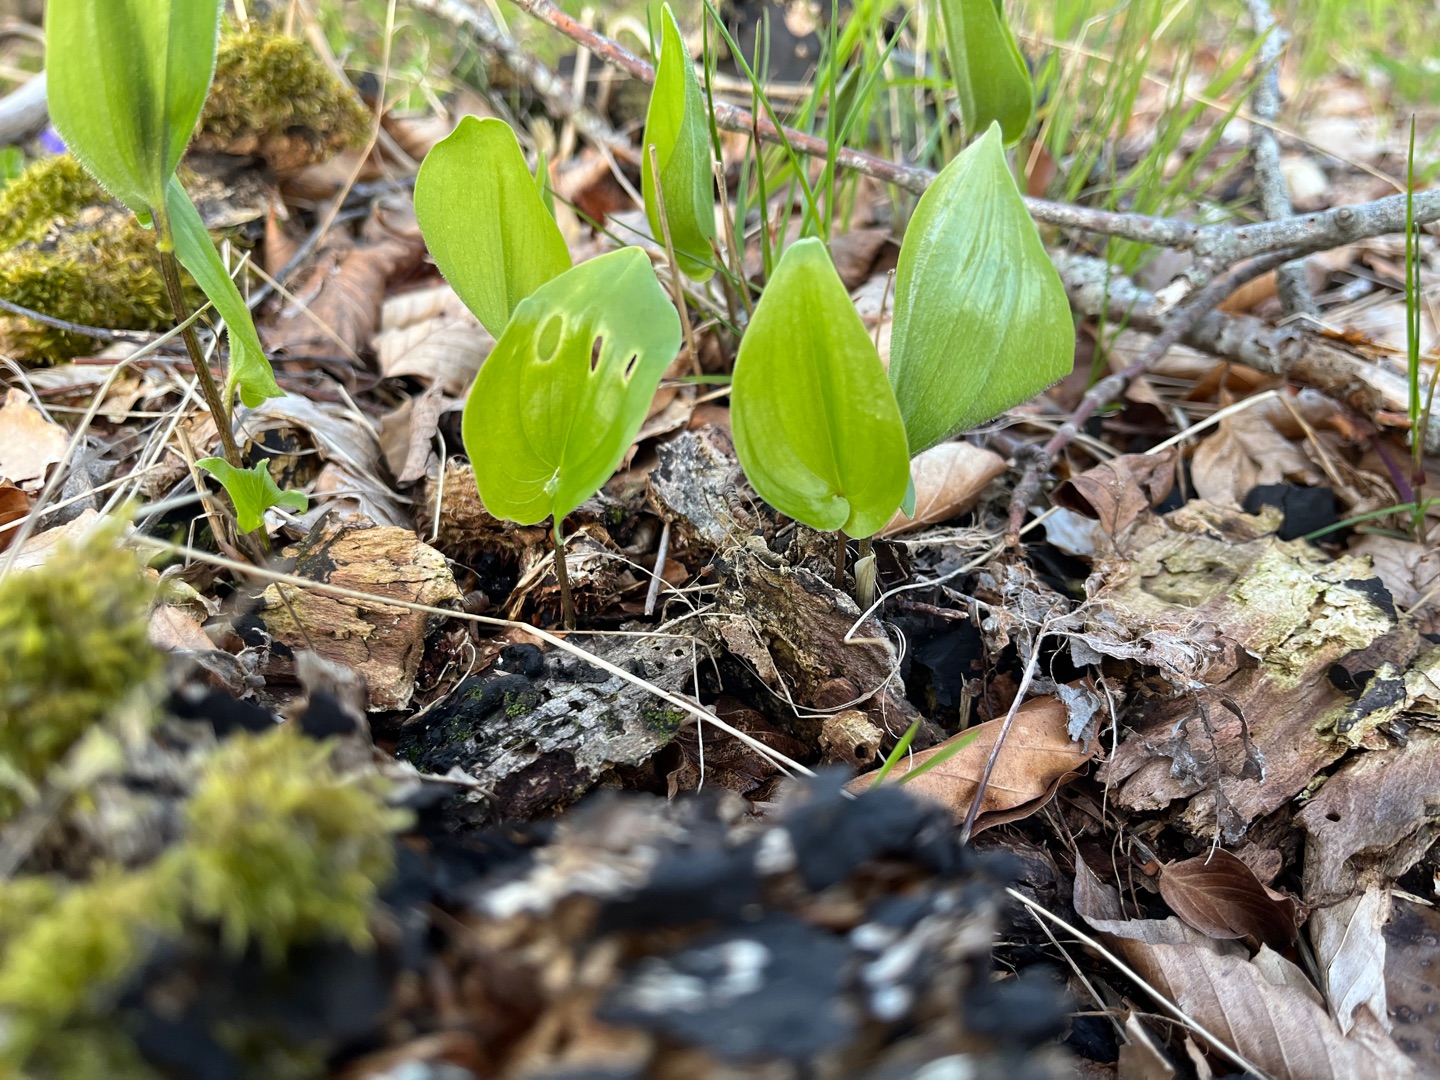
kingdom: Plantae
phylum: Tracheophyta
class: Liliopsida
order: Asparagales
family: Asparagaceae
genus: Maianthemum
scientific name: Maianthemum bifolium
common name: Majblomst
